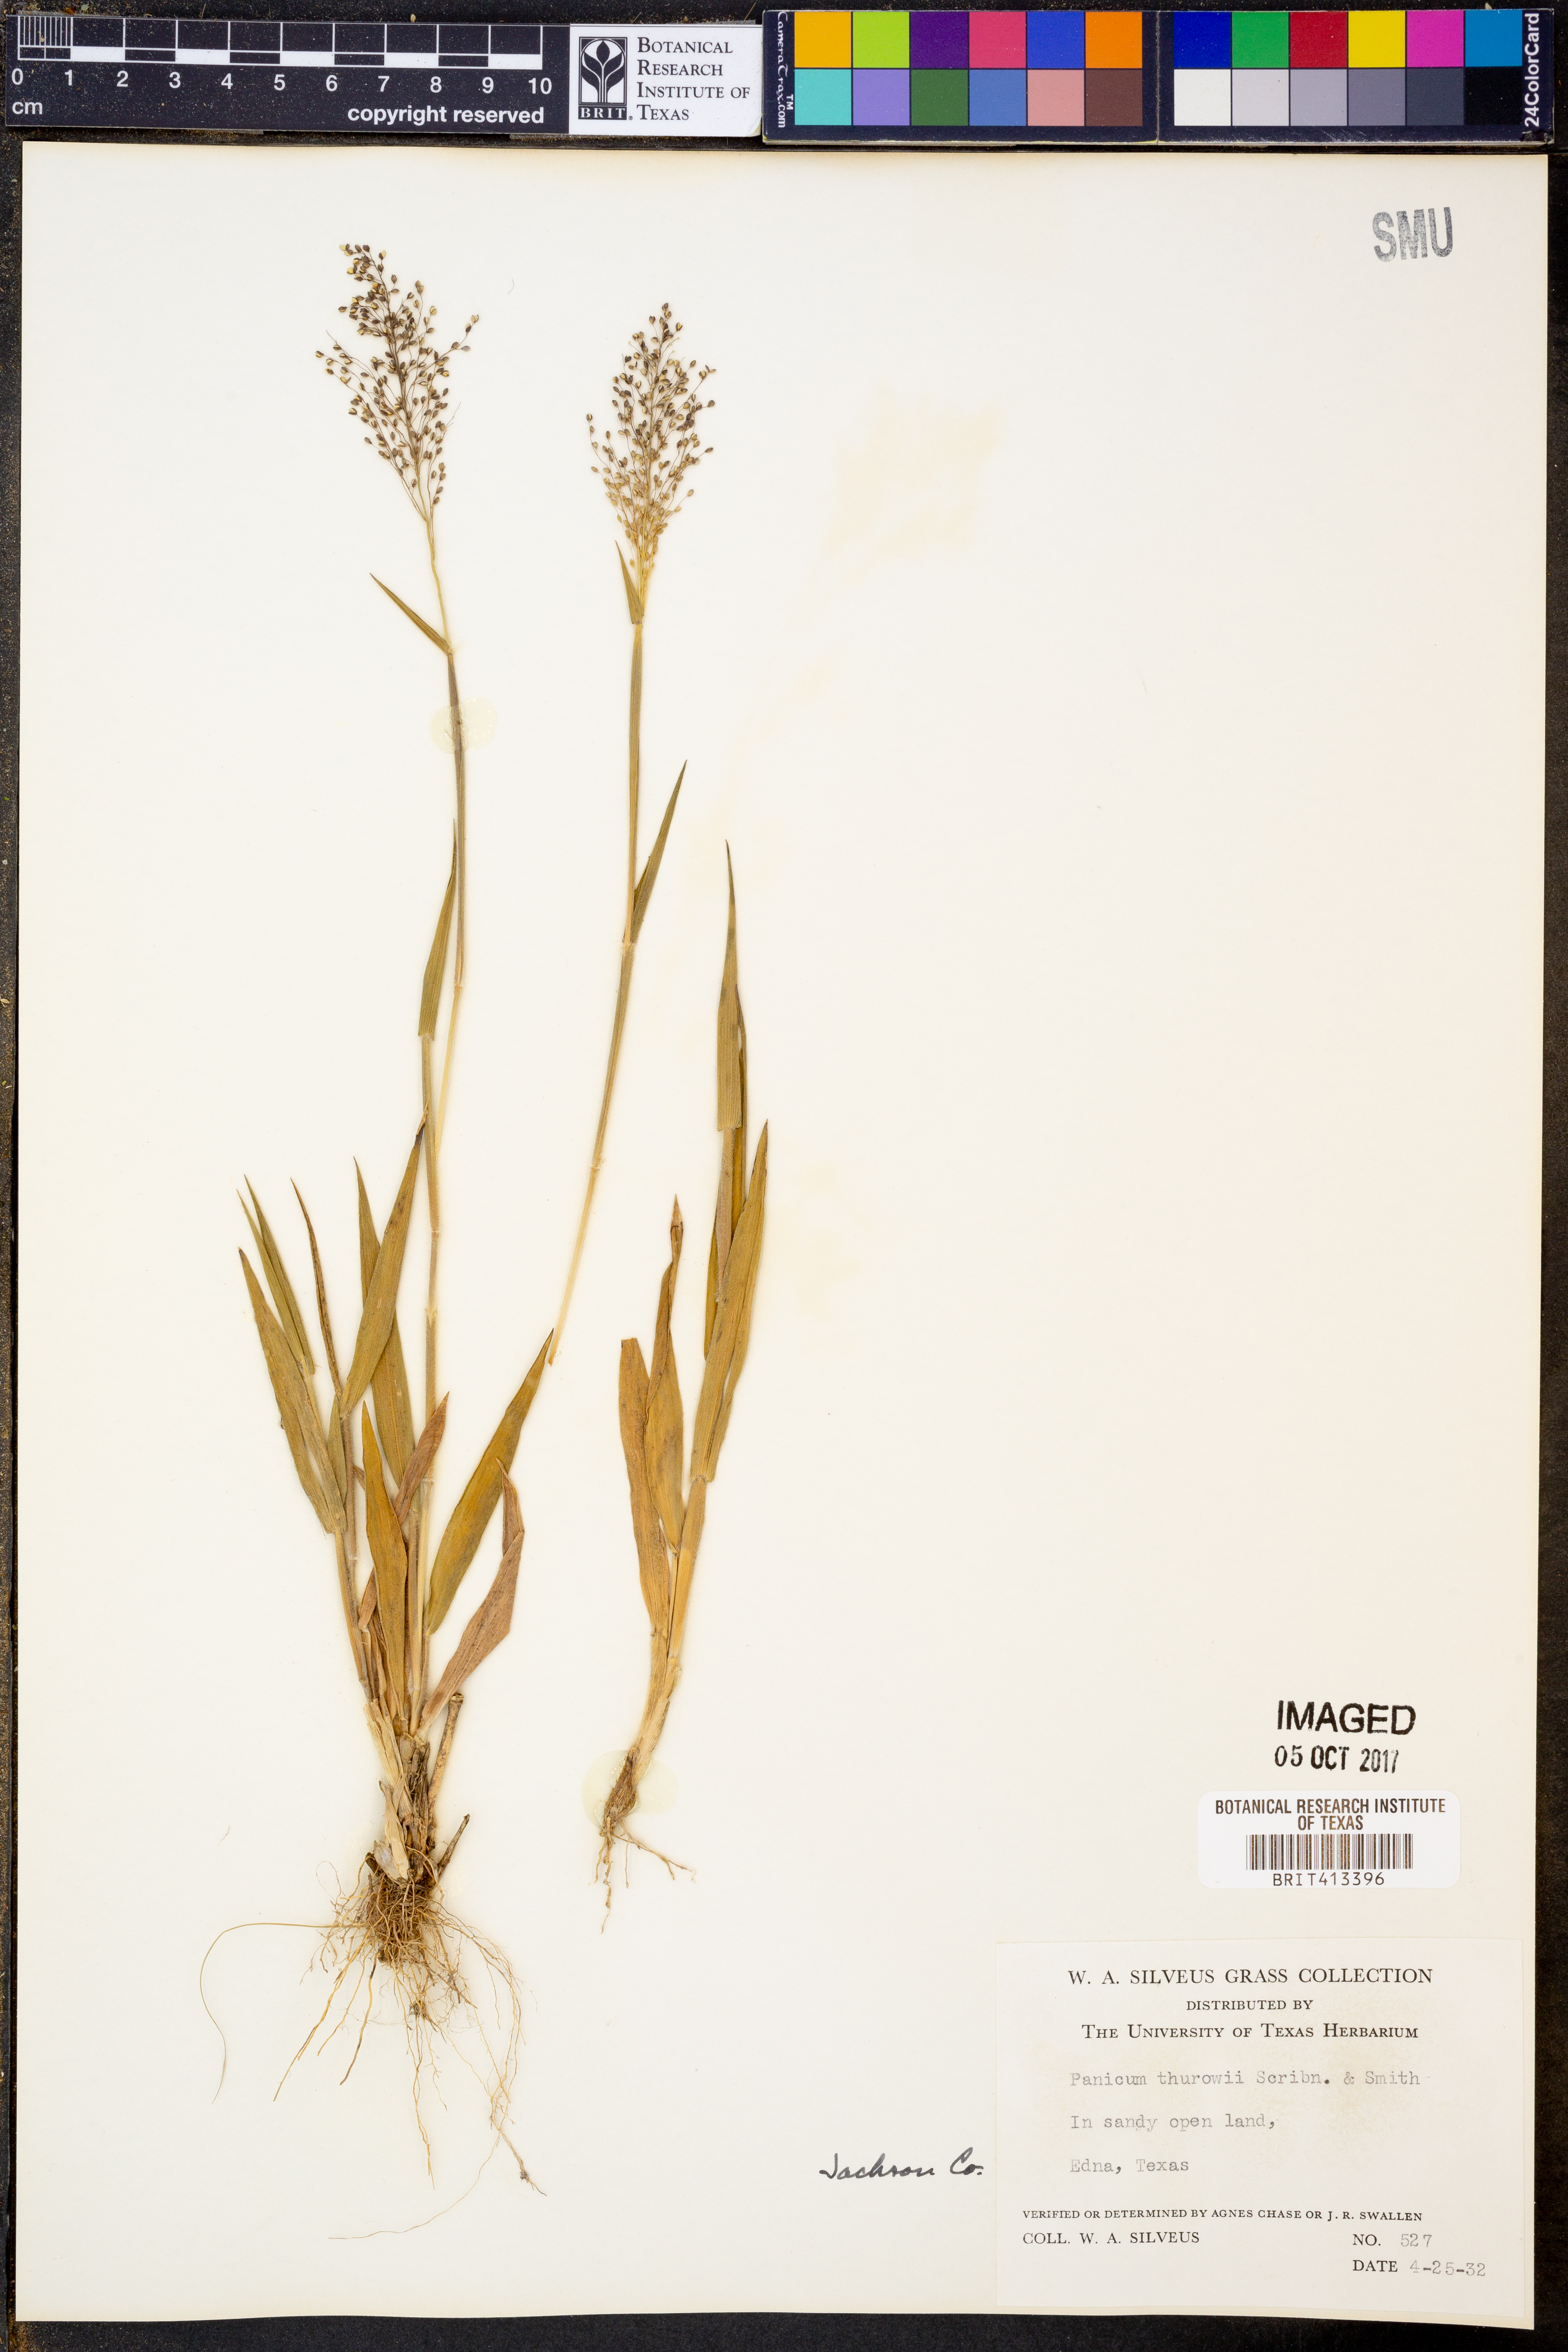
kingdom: Plantae
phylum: Tracheophyta
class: Liliopsida
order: Poales
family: Poaceae
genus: Dichanthelium
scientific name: Dichanthelium acuminatum
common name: Hairy panic grass
